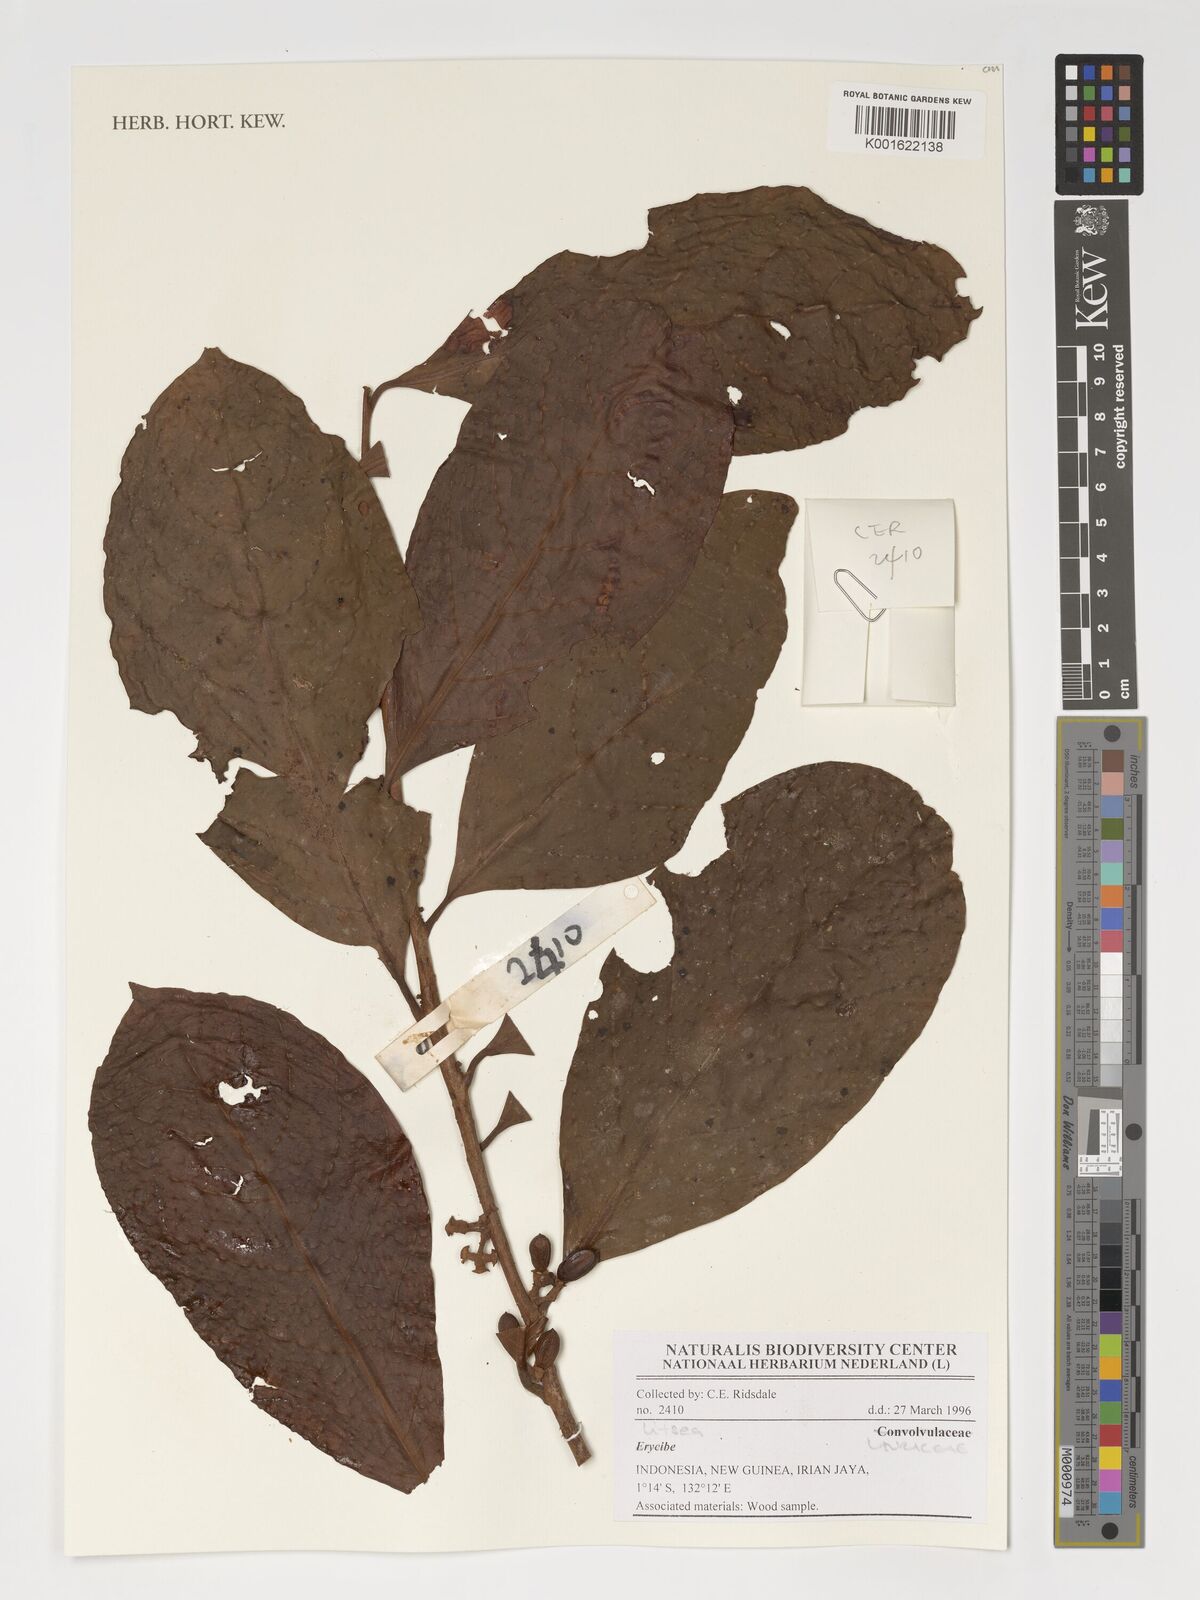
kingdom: Plantae
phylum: Tracheophyta
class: Magnoliopsida
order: Laurales
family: Lauraceae
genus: Litsea
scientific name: Litsea
